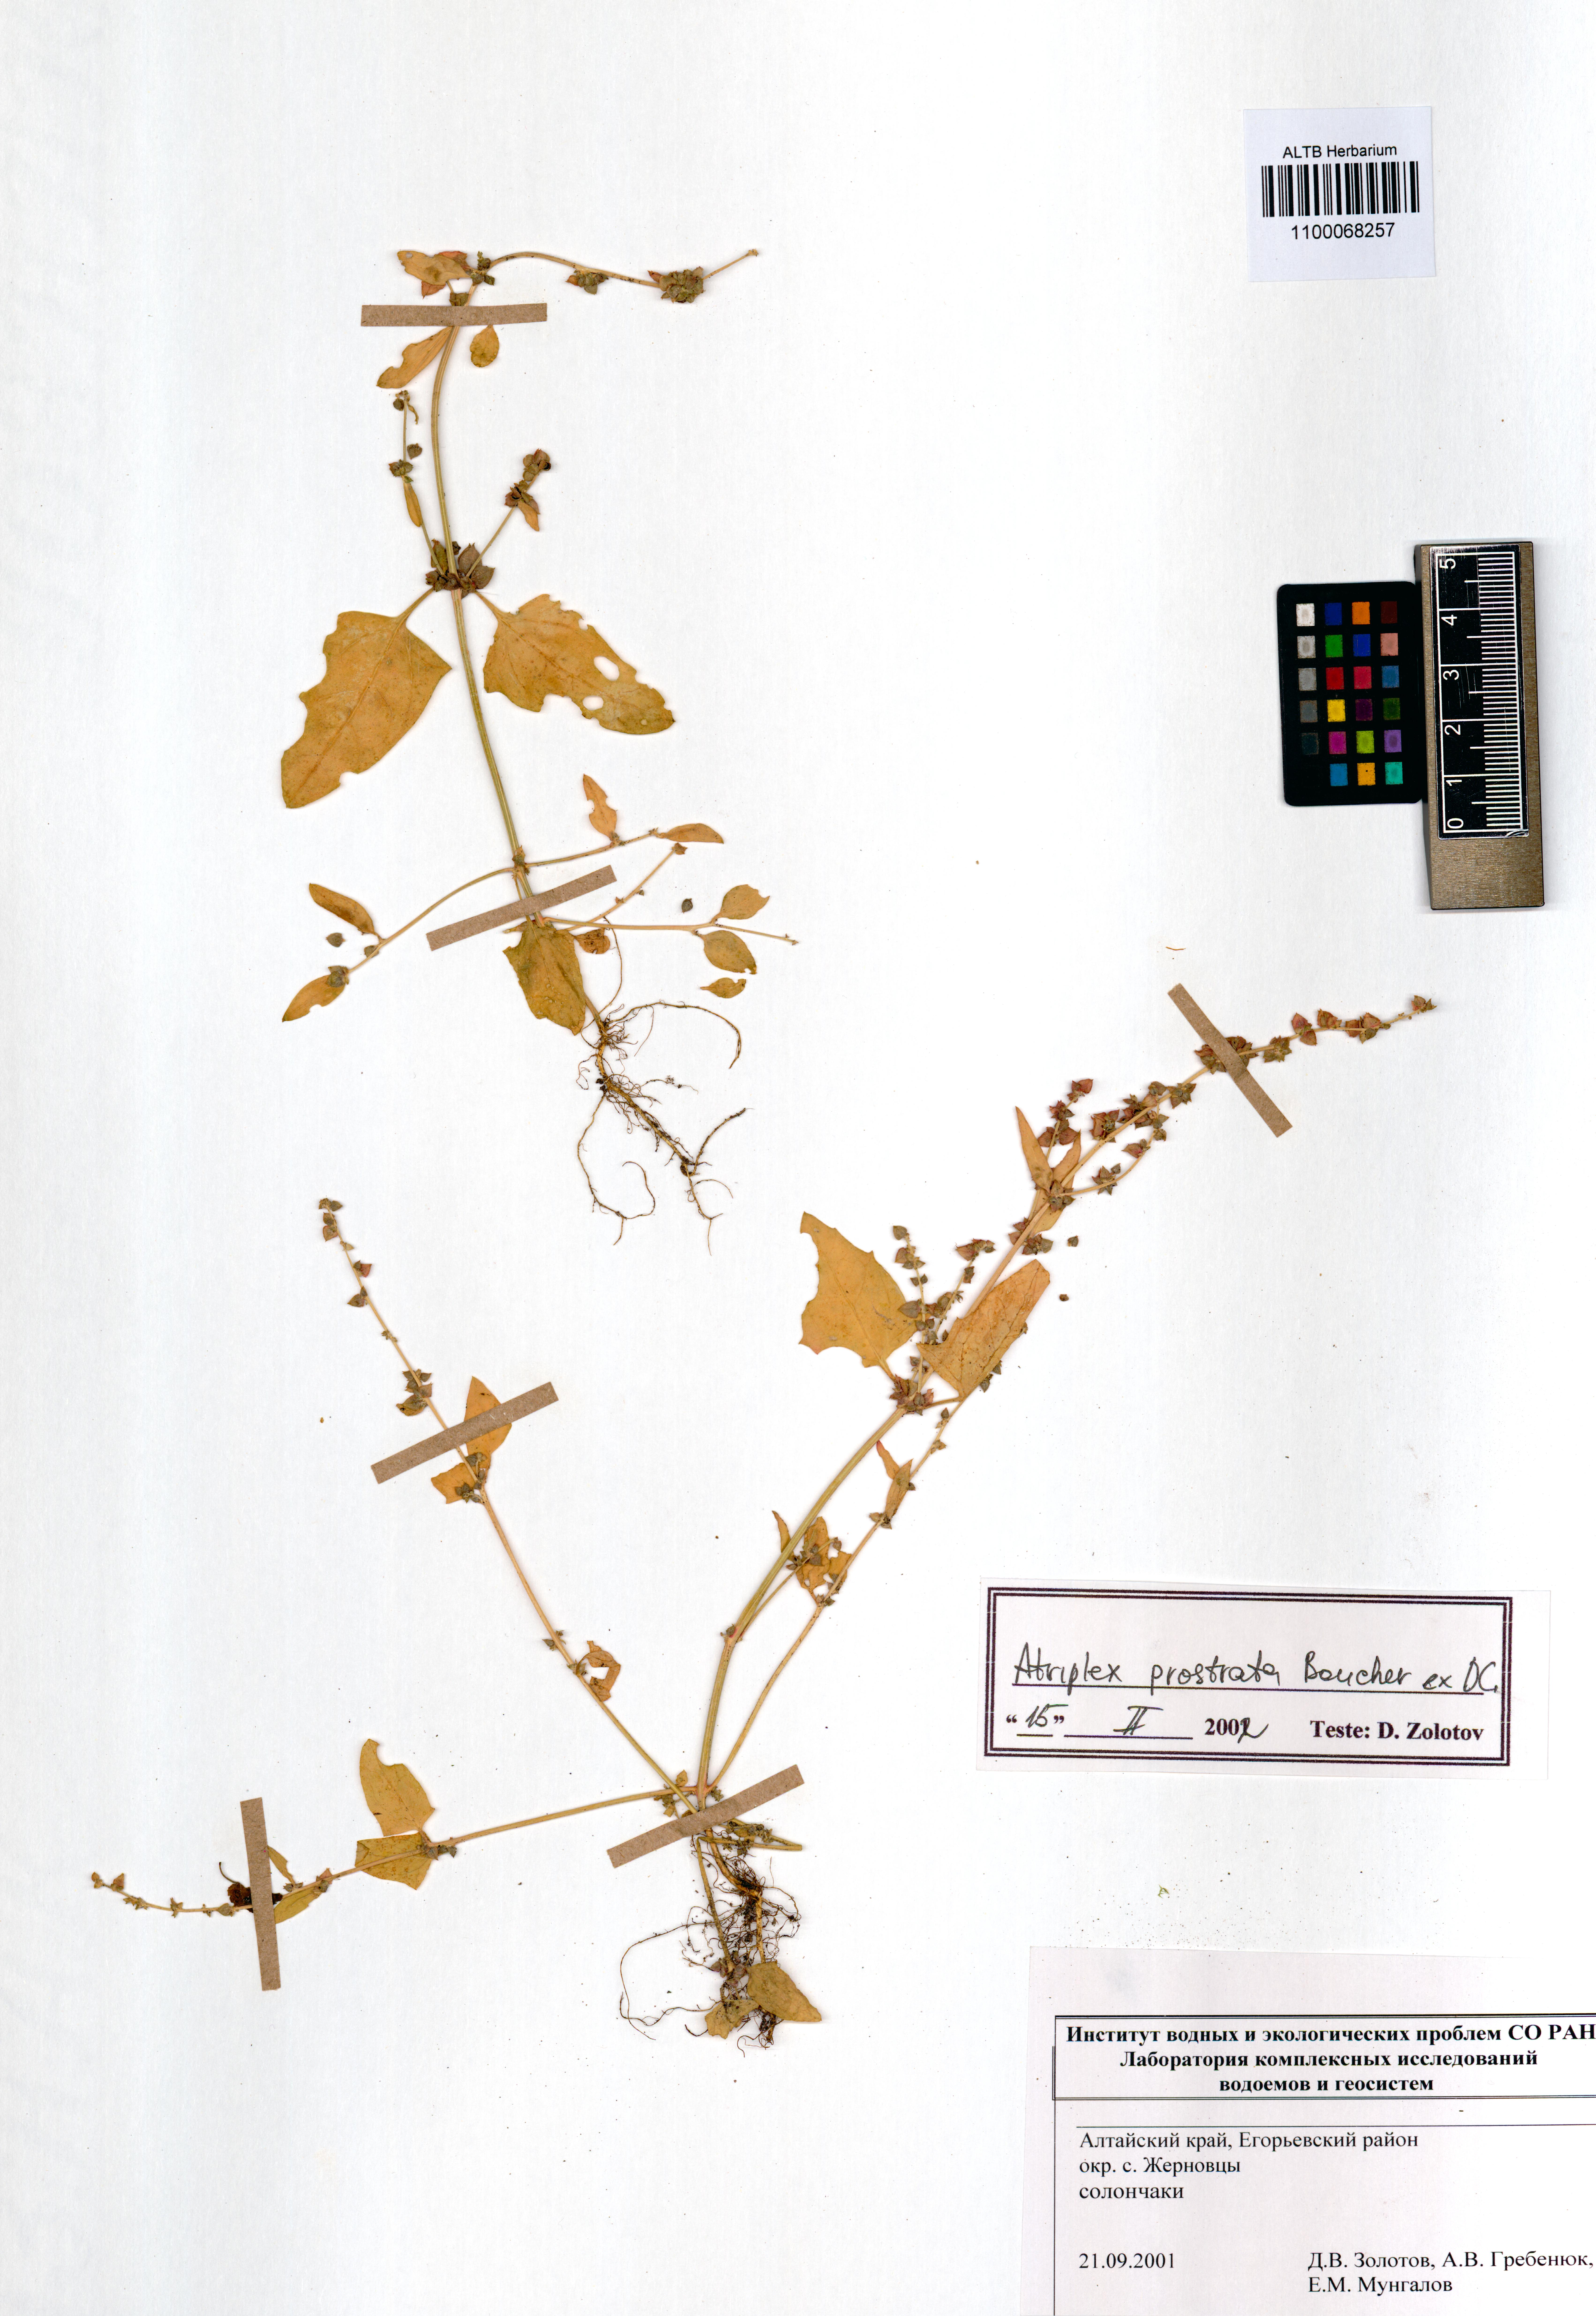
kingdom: Plantae
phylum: Tracheophyta
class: Magnoliopsida
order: Caryophyllales
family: Amaranthaceae
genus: Atriplex
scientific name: Atriplex prostrata
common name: Spear-leaved orache
